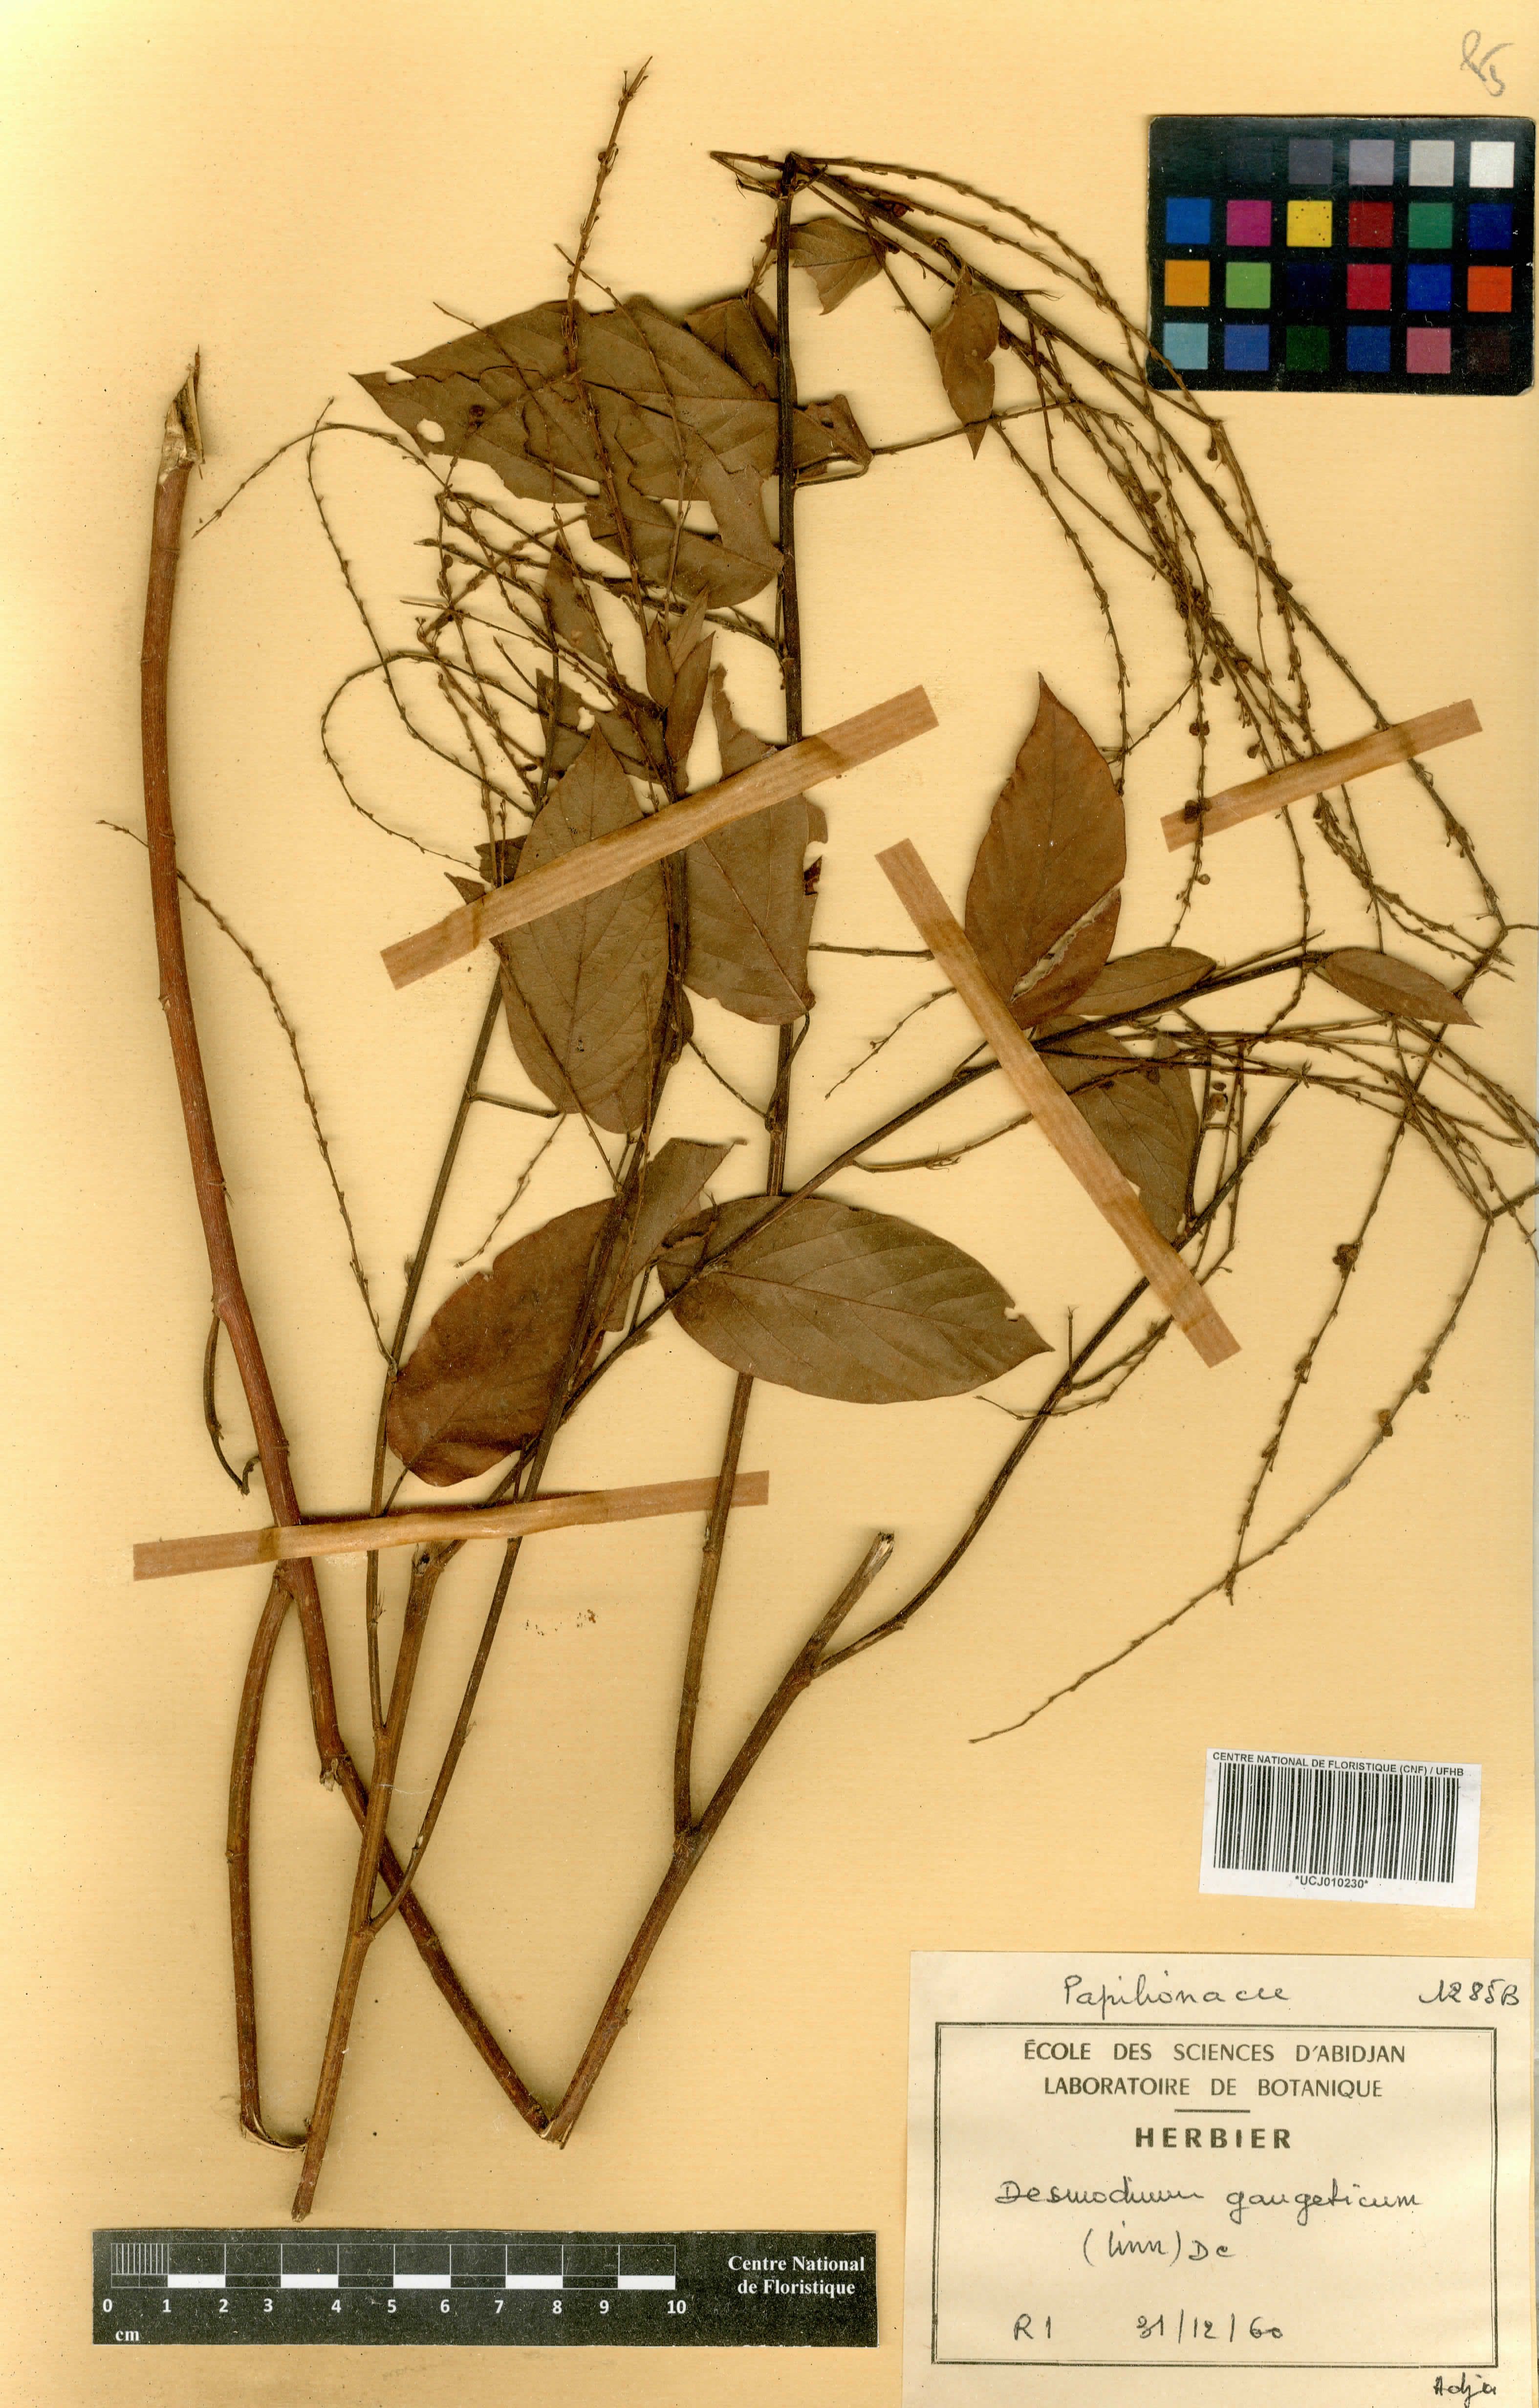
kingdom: Plantae
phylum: Tracheophyta
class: Magnoliopsida
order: Fabales
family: Fabaceae
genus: Pleurolobus
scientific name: Pleurolobus gangeticus
